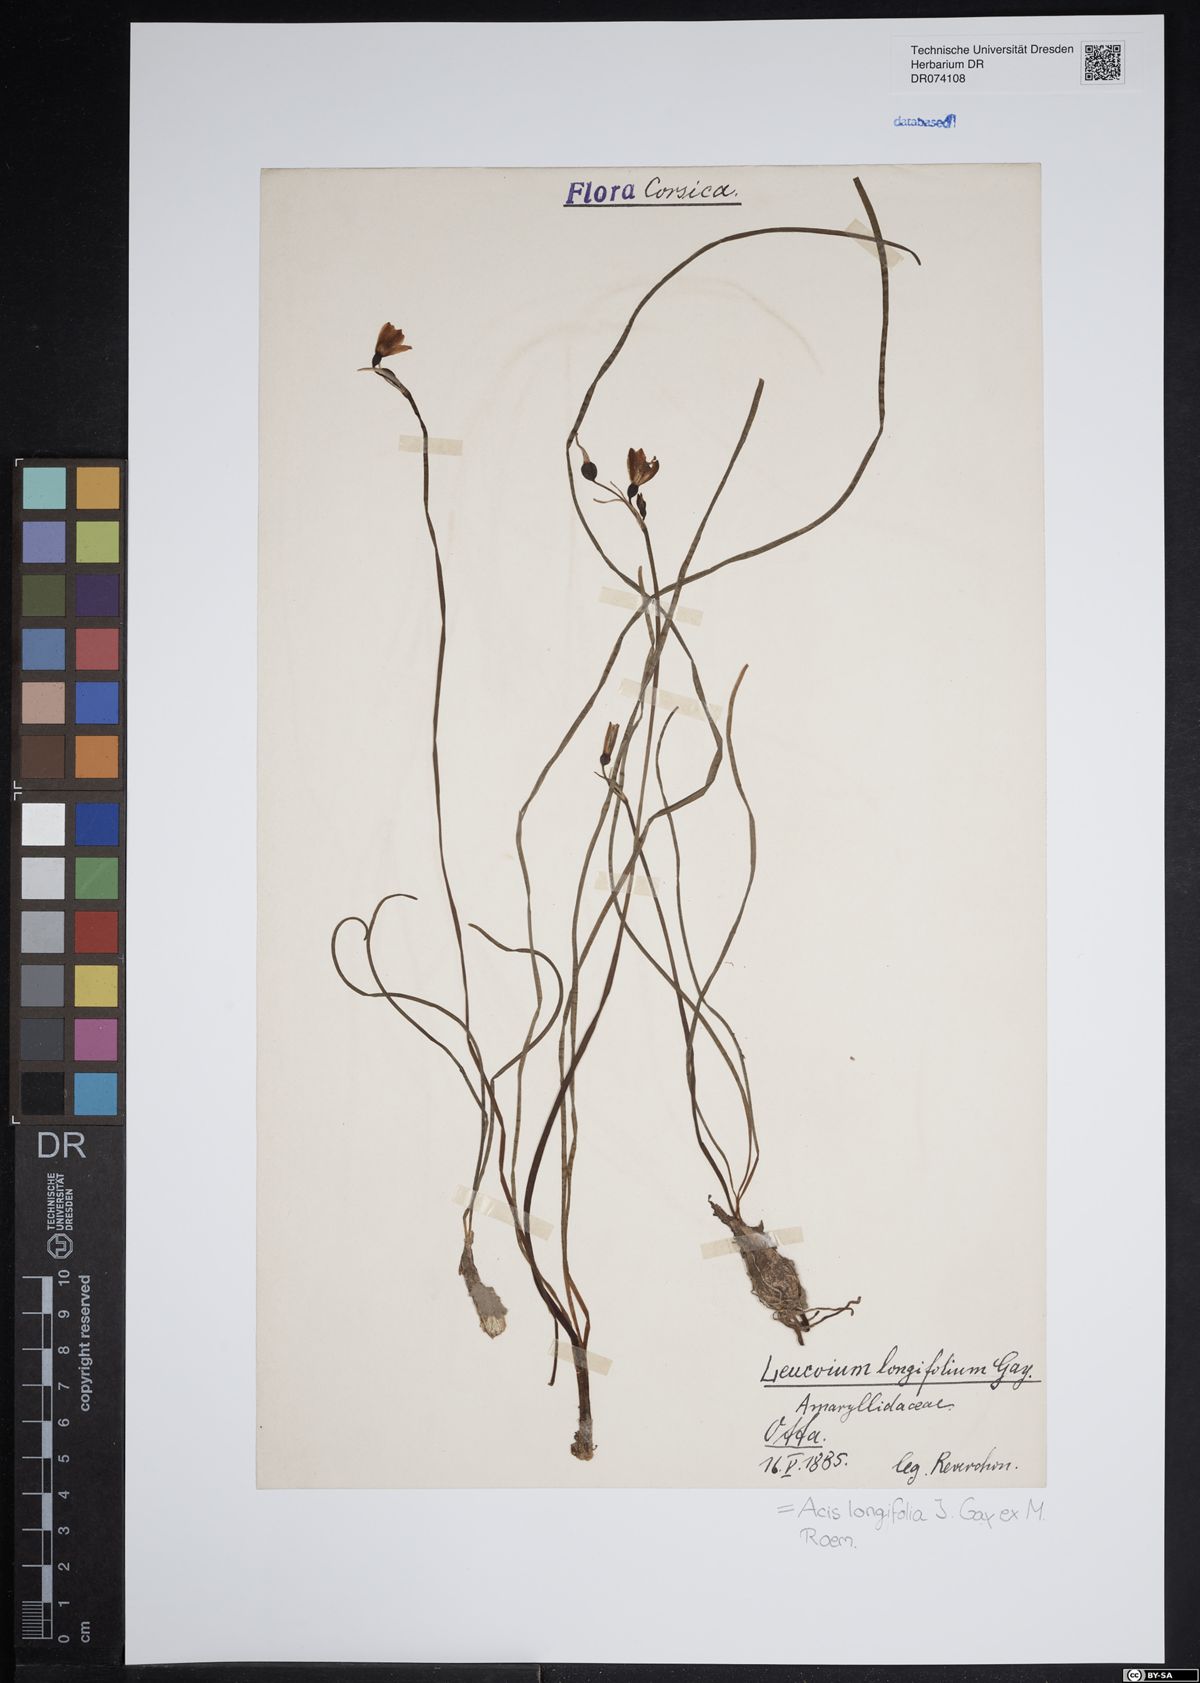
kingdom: Plantae
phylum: Tracheophyta
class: Liliopsida
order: Asparagales
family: Amaryllidaceae
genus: Acis
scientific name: Acis longifolia
